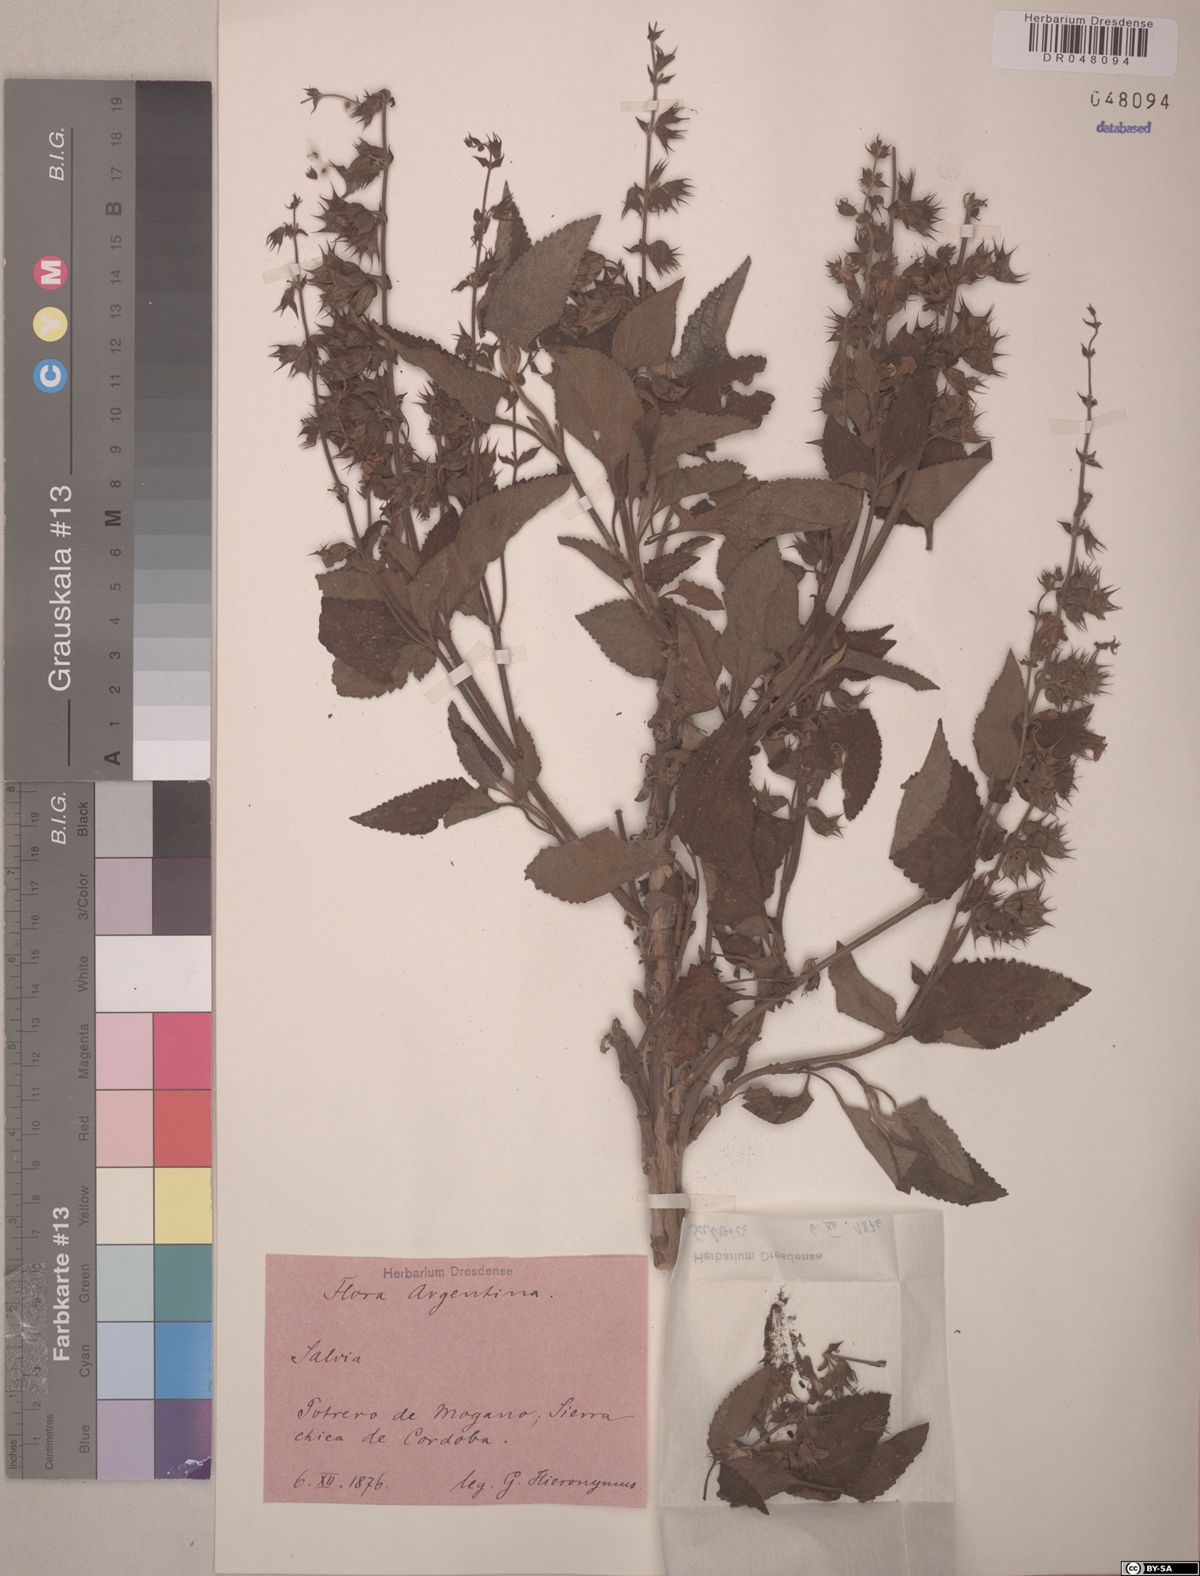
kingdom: Plantae
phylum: Tracheophyta
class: Magnoliopsida
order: Lamiales
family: Lamiaceae
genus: Lepechinia
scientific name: Lepechinia floribunda
